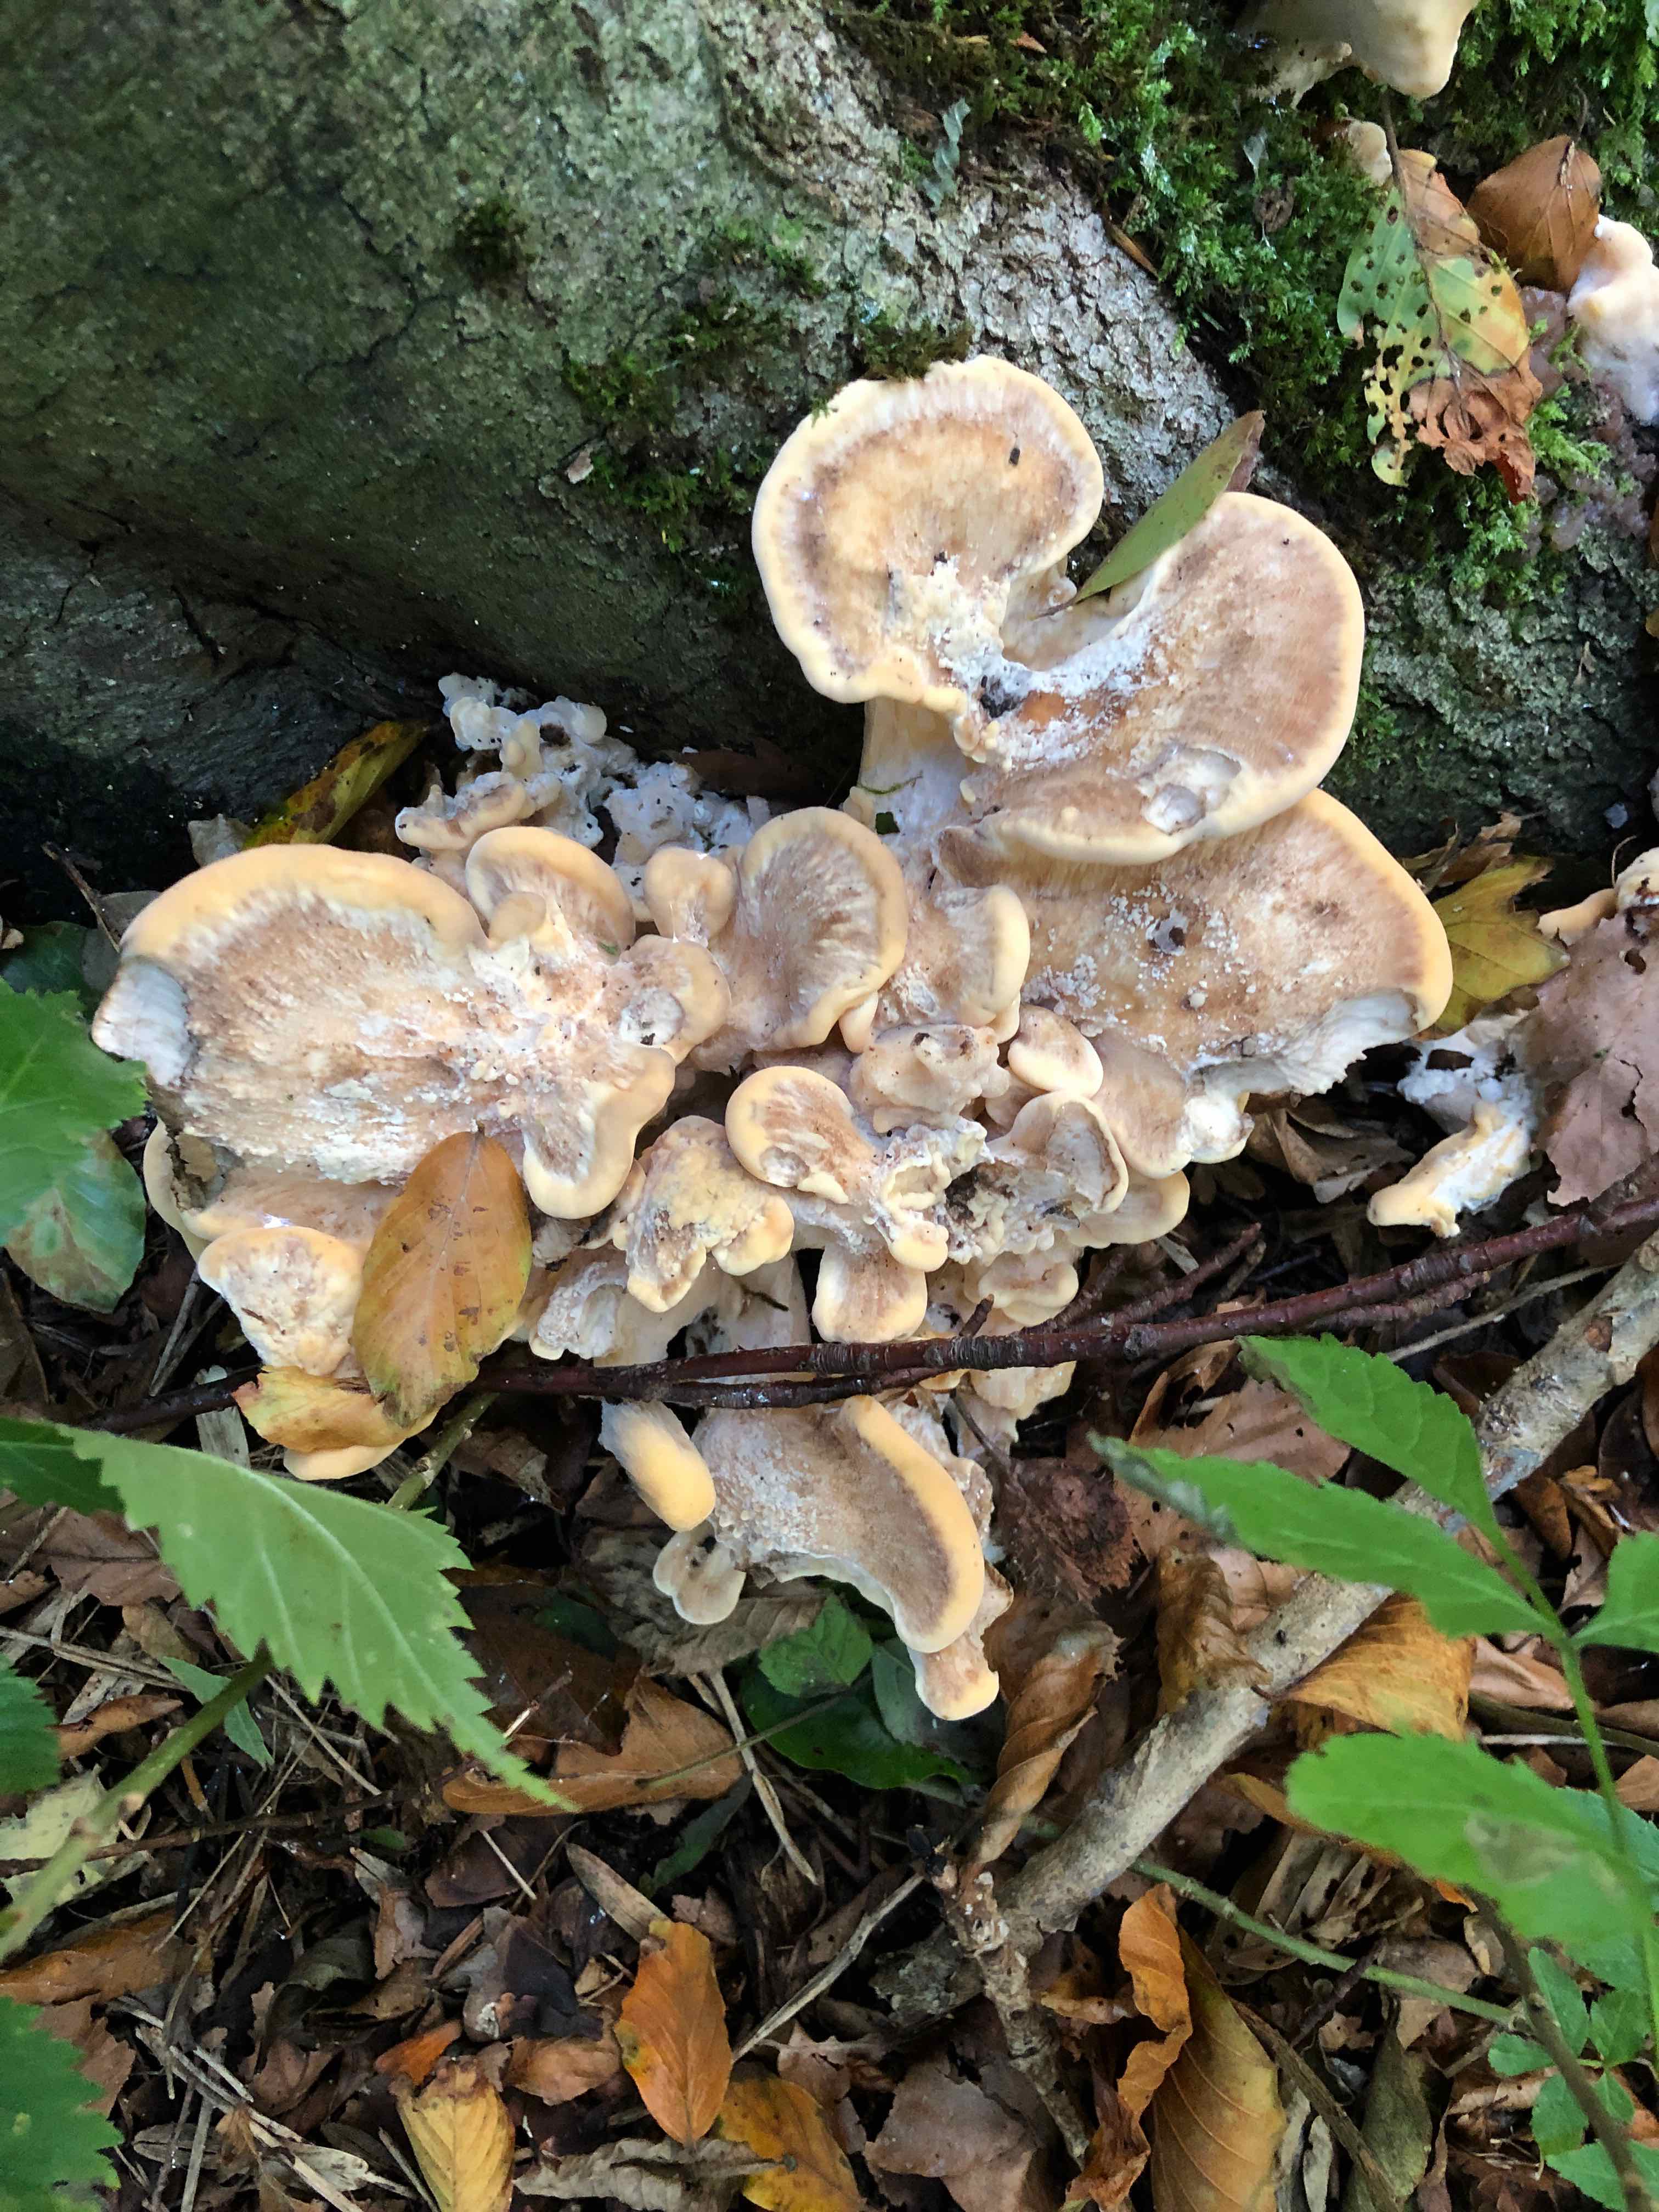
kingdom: Fungi
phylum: Basidiomycota
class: Agaricomycetes
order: Polyporales
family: Meripilaceae
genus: Meripilus
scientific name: Meripilus giganteus
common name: kæmpeporesvamp
